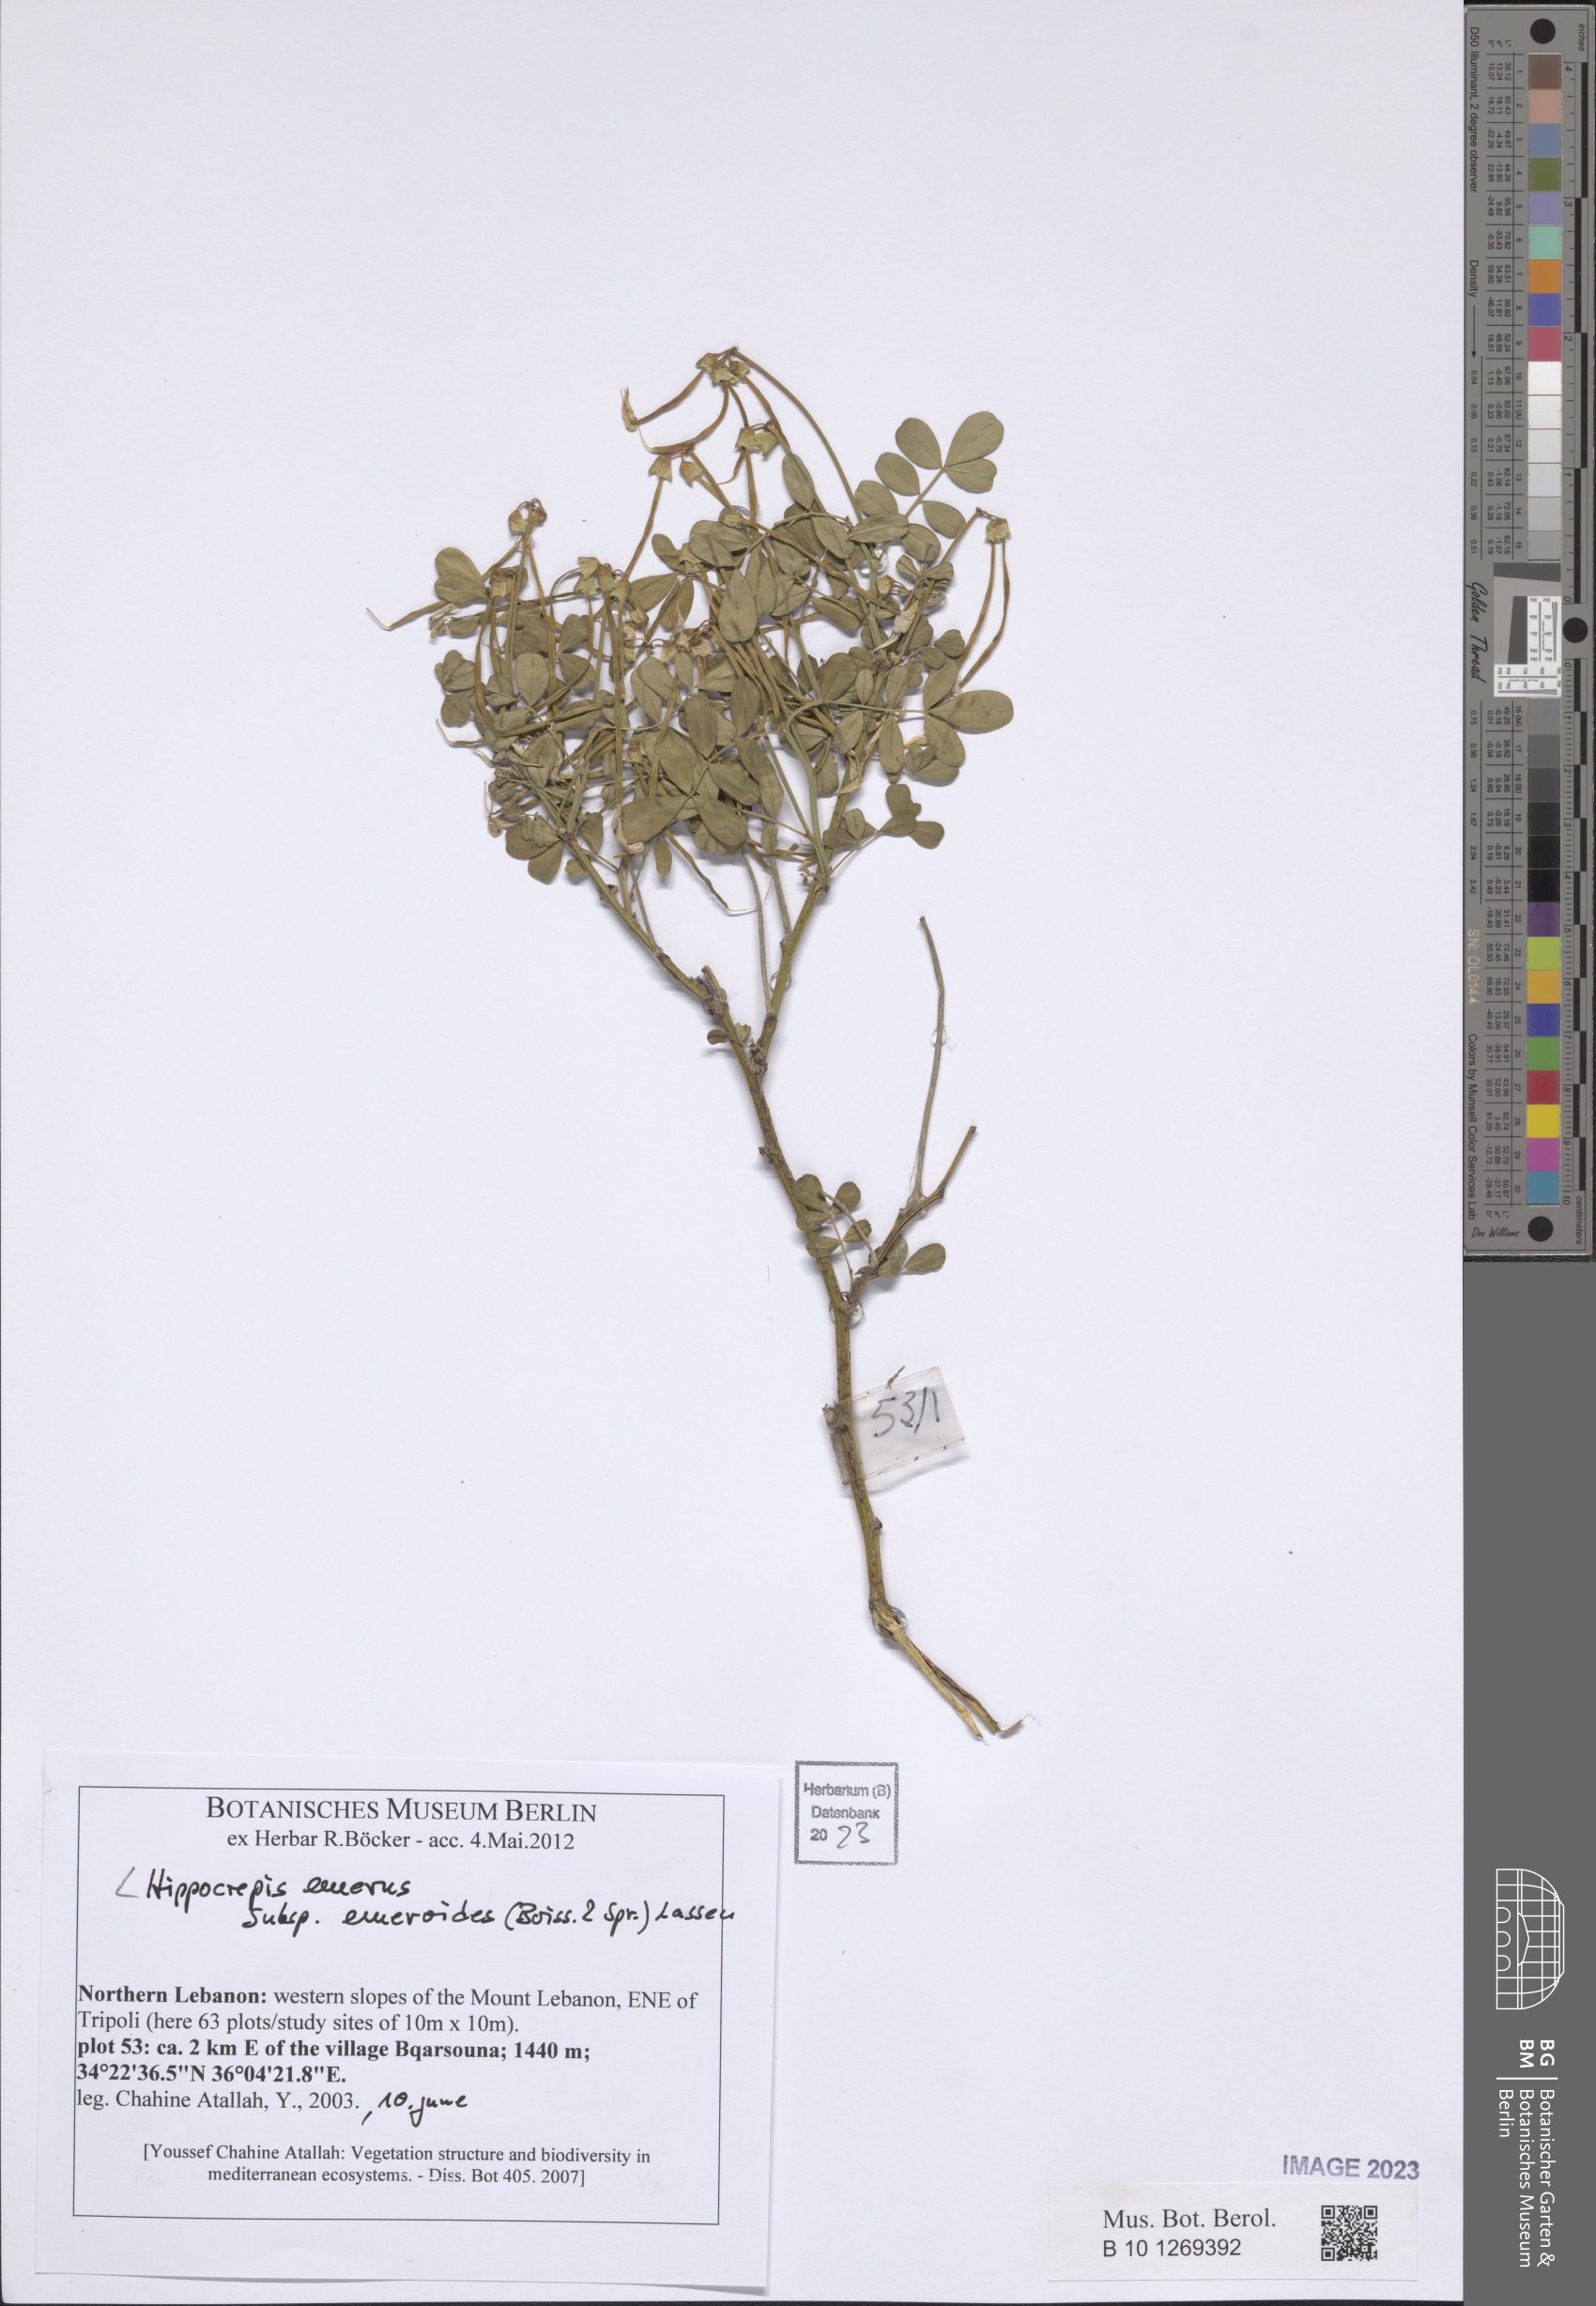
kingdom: Plantae
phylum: Tracheophyta
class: Magnoliopsida
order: Fabales
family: Fabaceae
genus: Hippocrepis
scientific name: Hippocrepis emerus
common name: Scorpion senna
